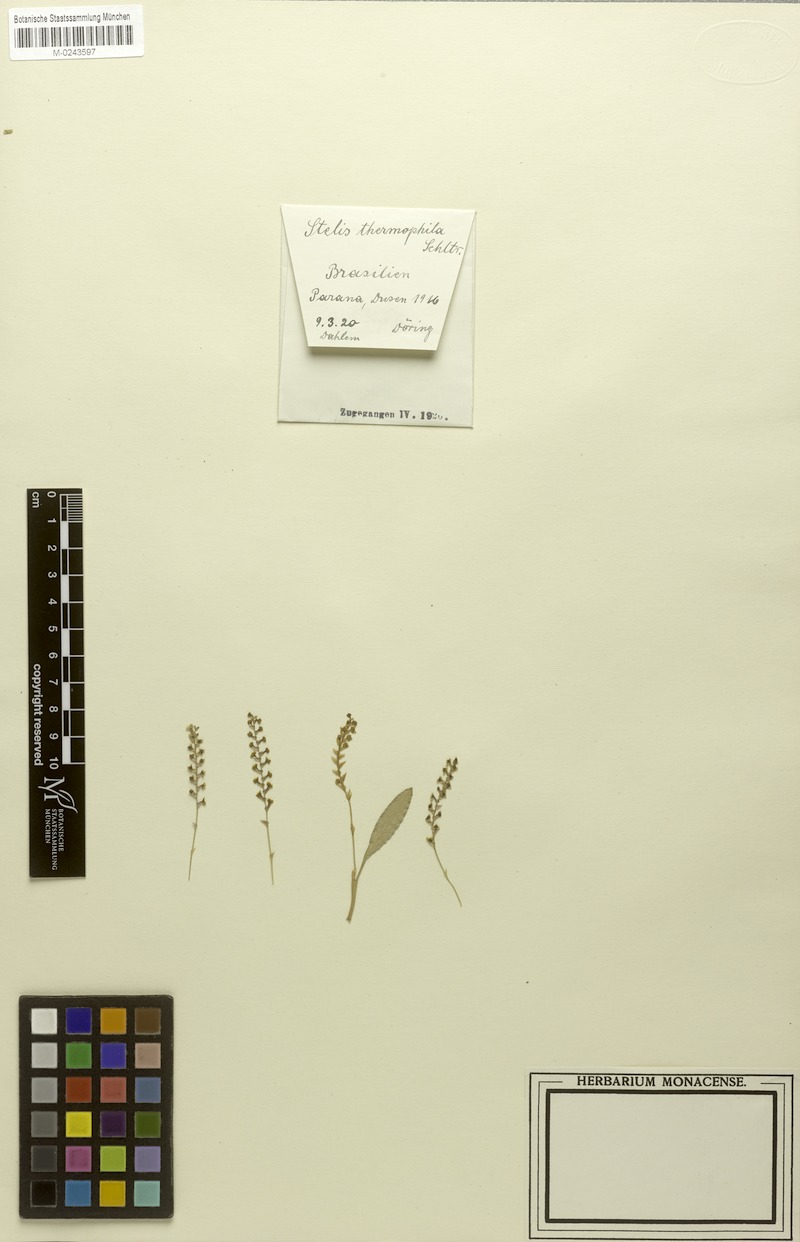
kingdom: Plantae
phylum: Tracheophyta
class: Liliopsida
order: Asparagales
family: Orchidaceae
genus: Stelis
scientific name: Stelis thermophila
